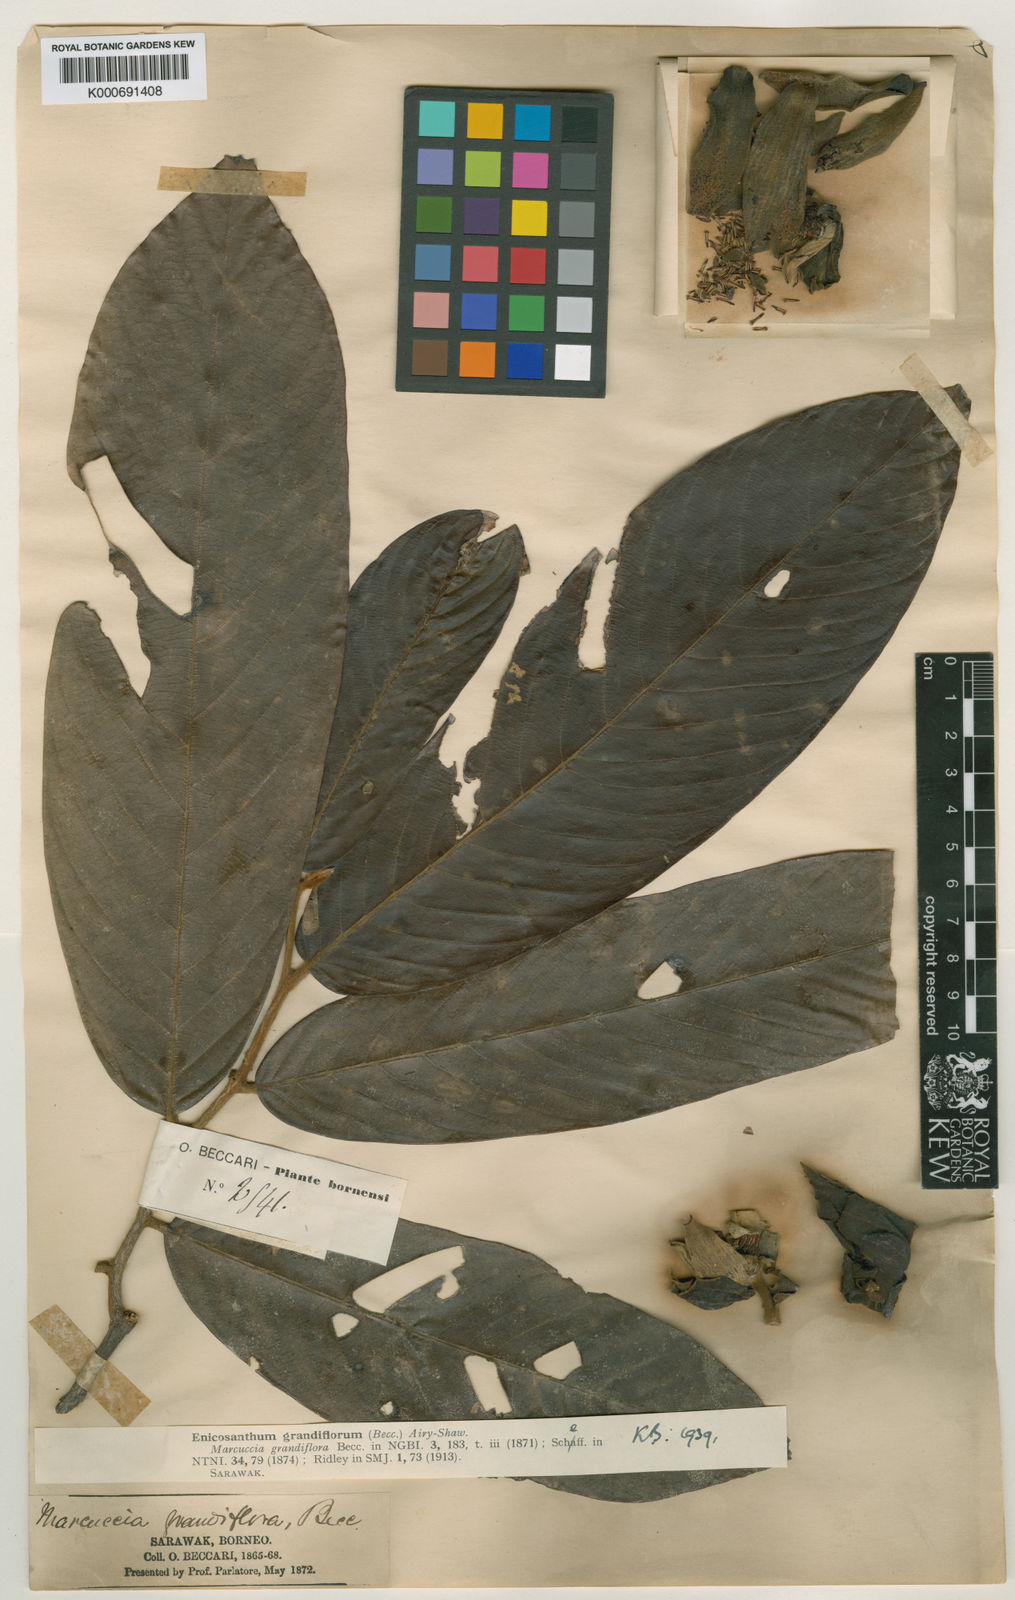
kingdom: Plantae
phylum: Tracheophyta
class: Magnoliopsida
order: Magnoliales
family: Annonaceae
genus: Enicosanthum
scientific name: Enicosanthum grandiflorum
